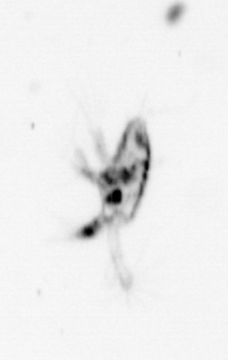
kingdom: Animalia
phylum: Arthropoda
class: Copepoda
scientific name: Copepoda
